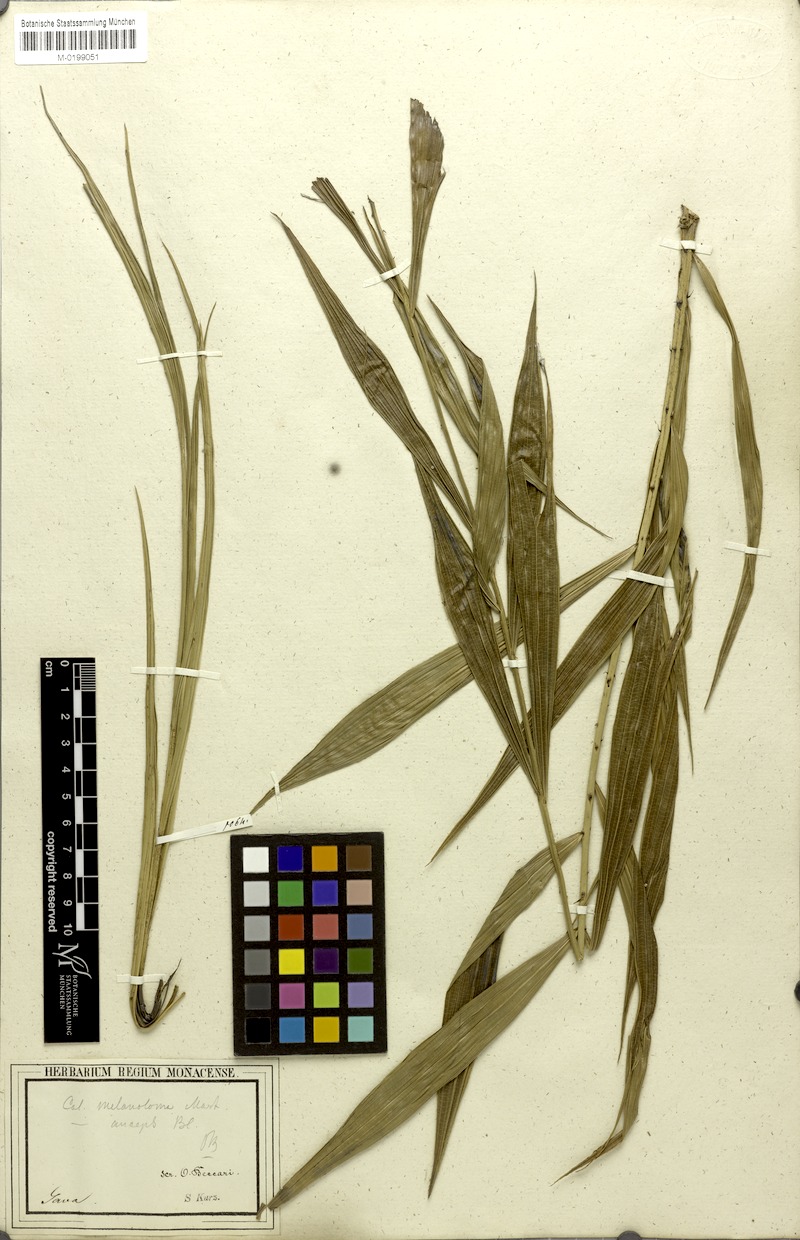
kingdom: Plantae
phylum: Tracheophyta
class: Liliopsida
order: Arecales
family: Arecaceae
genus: Calamus
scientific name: Calamus melanoloma
